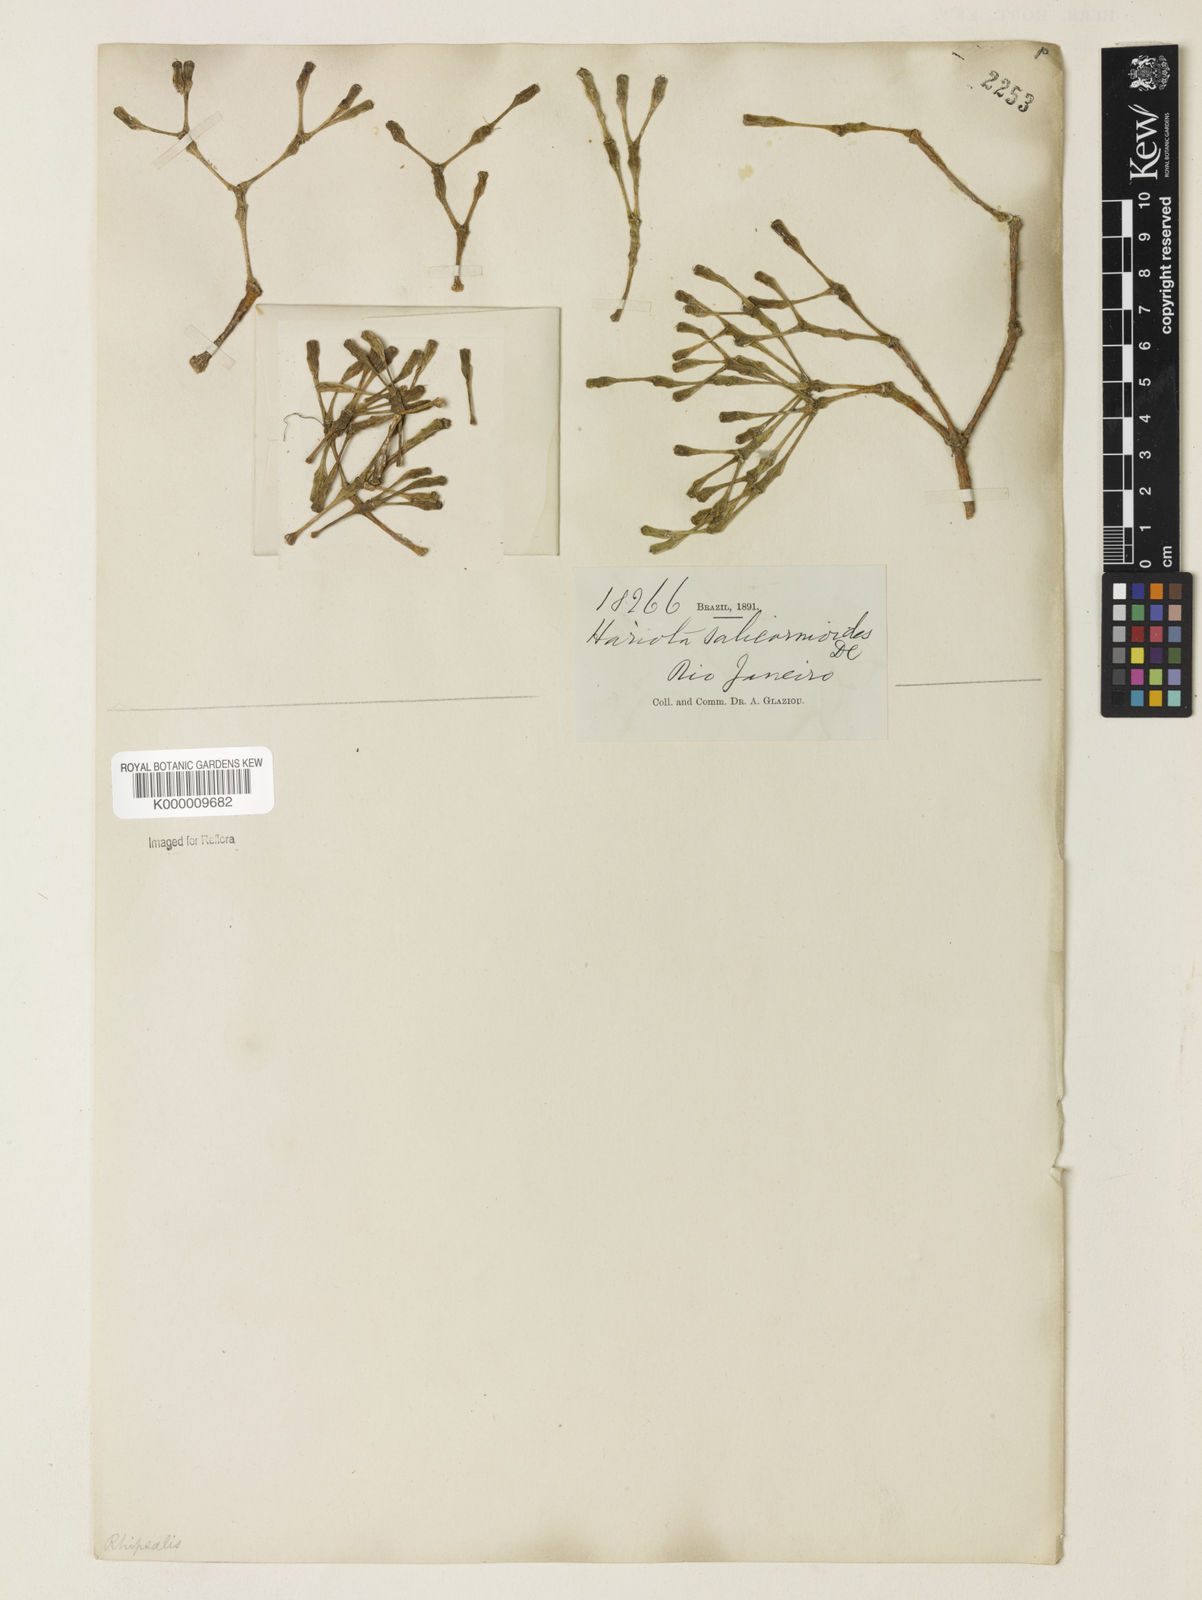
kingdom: Plantae
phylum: Tracheophyta
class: Magnoliopsida
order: Caryophyllales
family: Cactaceae
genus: Hatiora
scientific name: Hatiora
